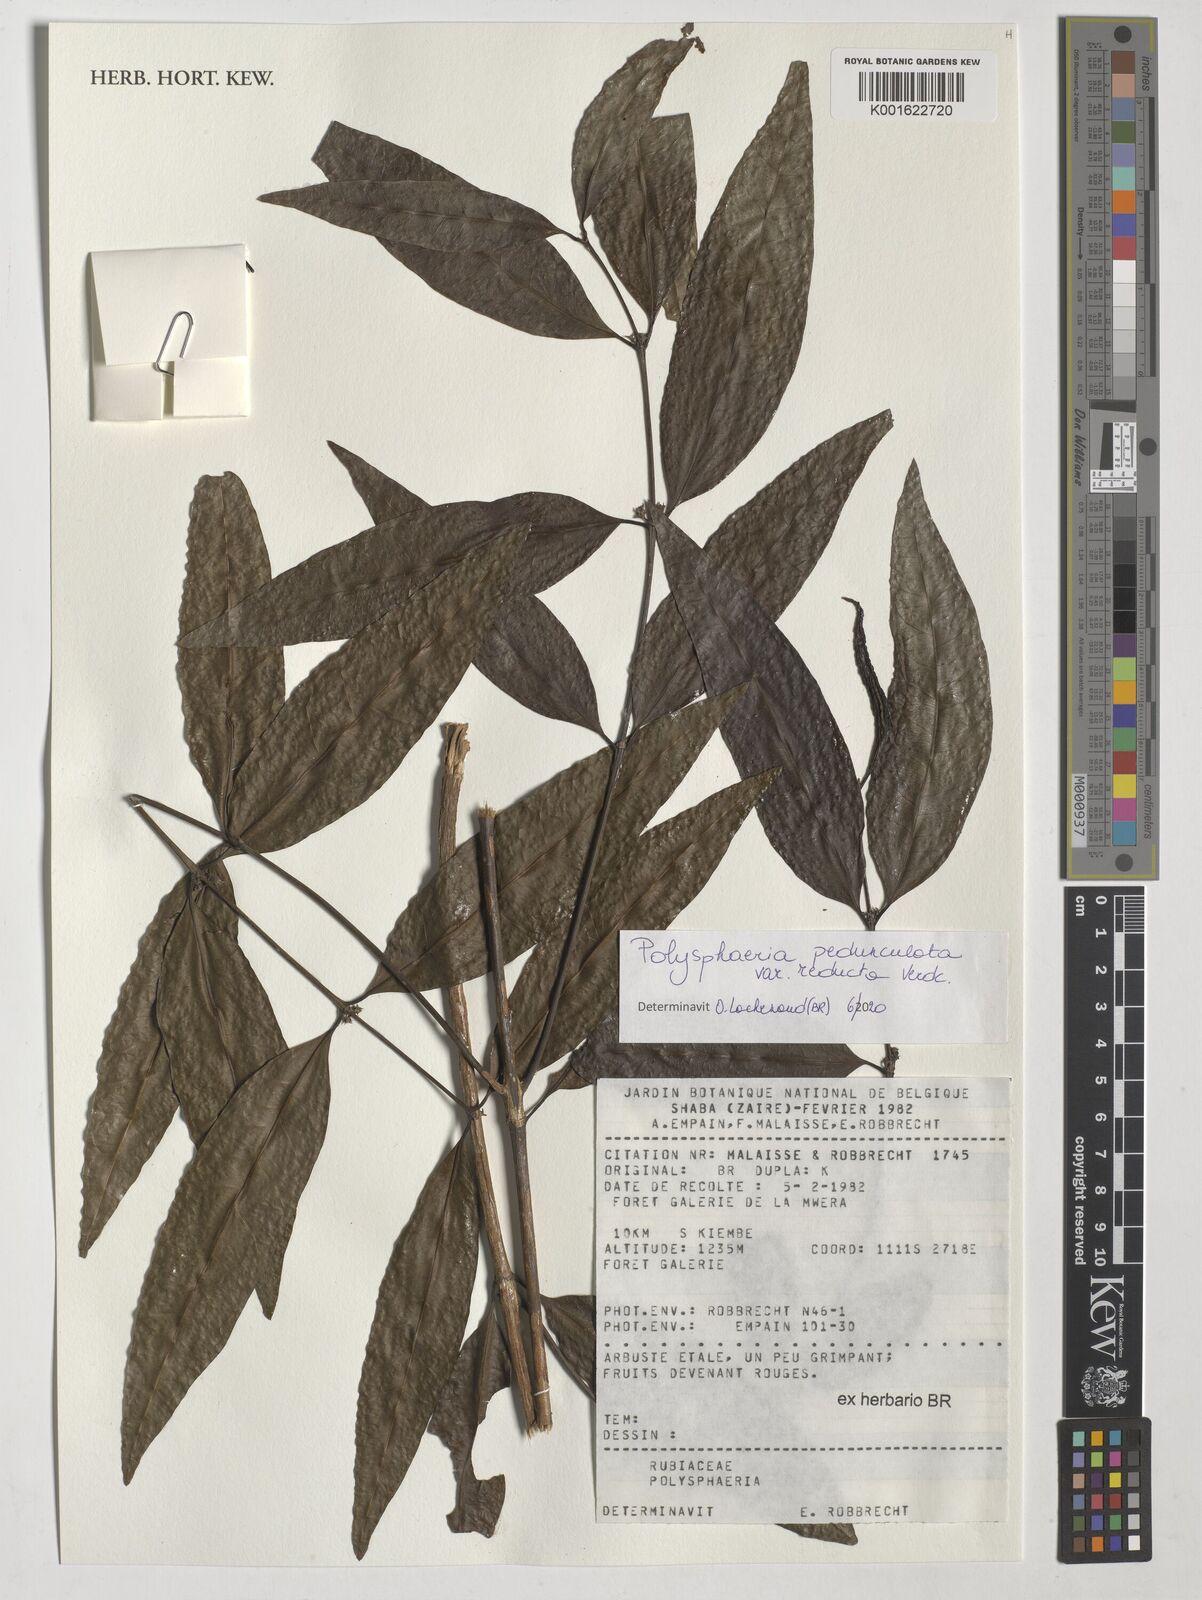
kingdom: Plantae
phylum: Tracheophyta
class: Magnoliopsida
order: Gentianales
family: Rubiaceae
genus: Polysphaeria
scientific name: Polysphaeria pedunculata
